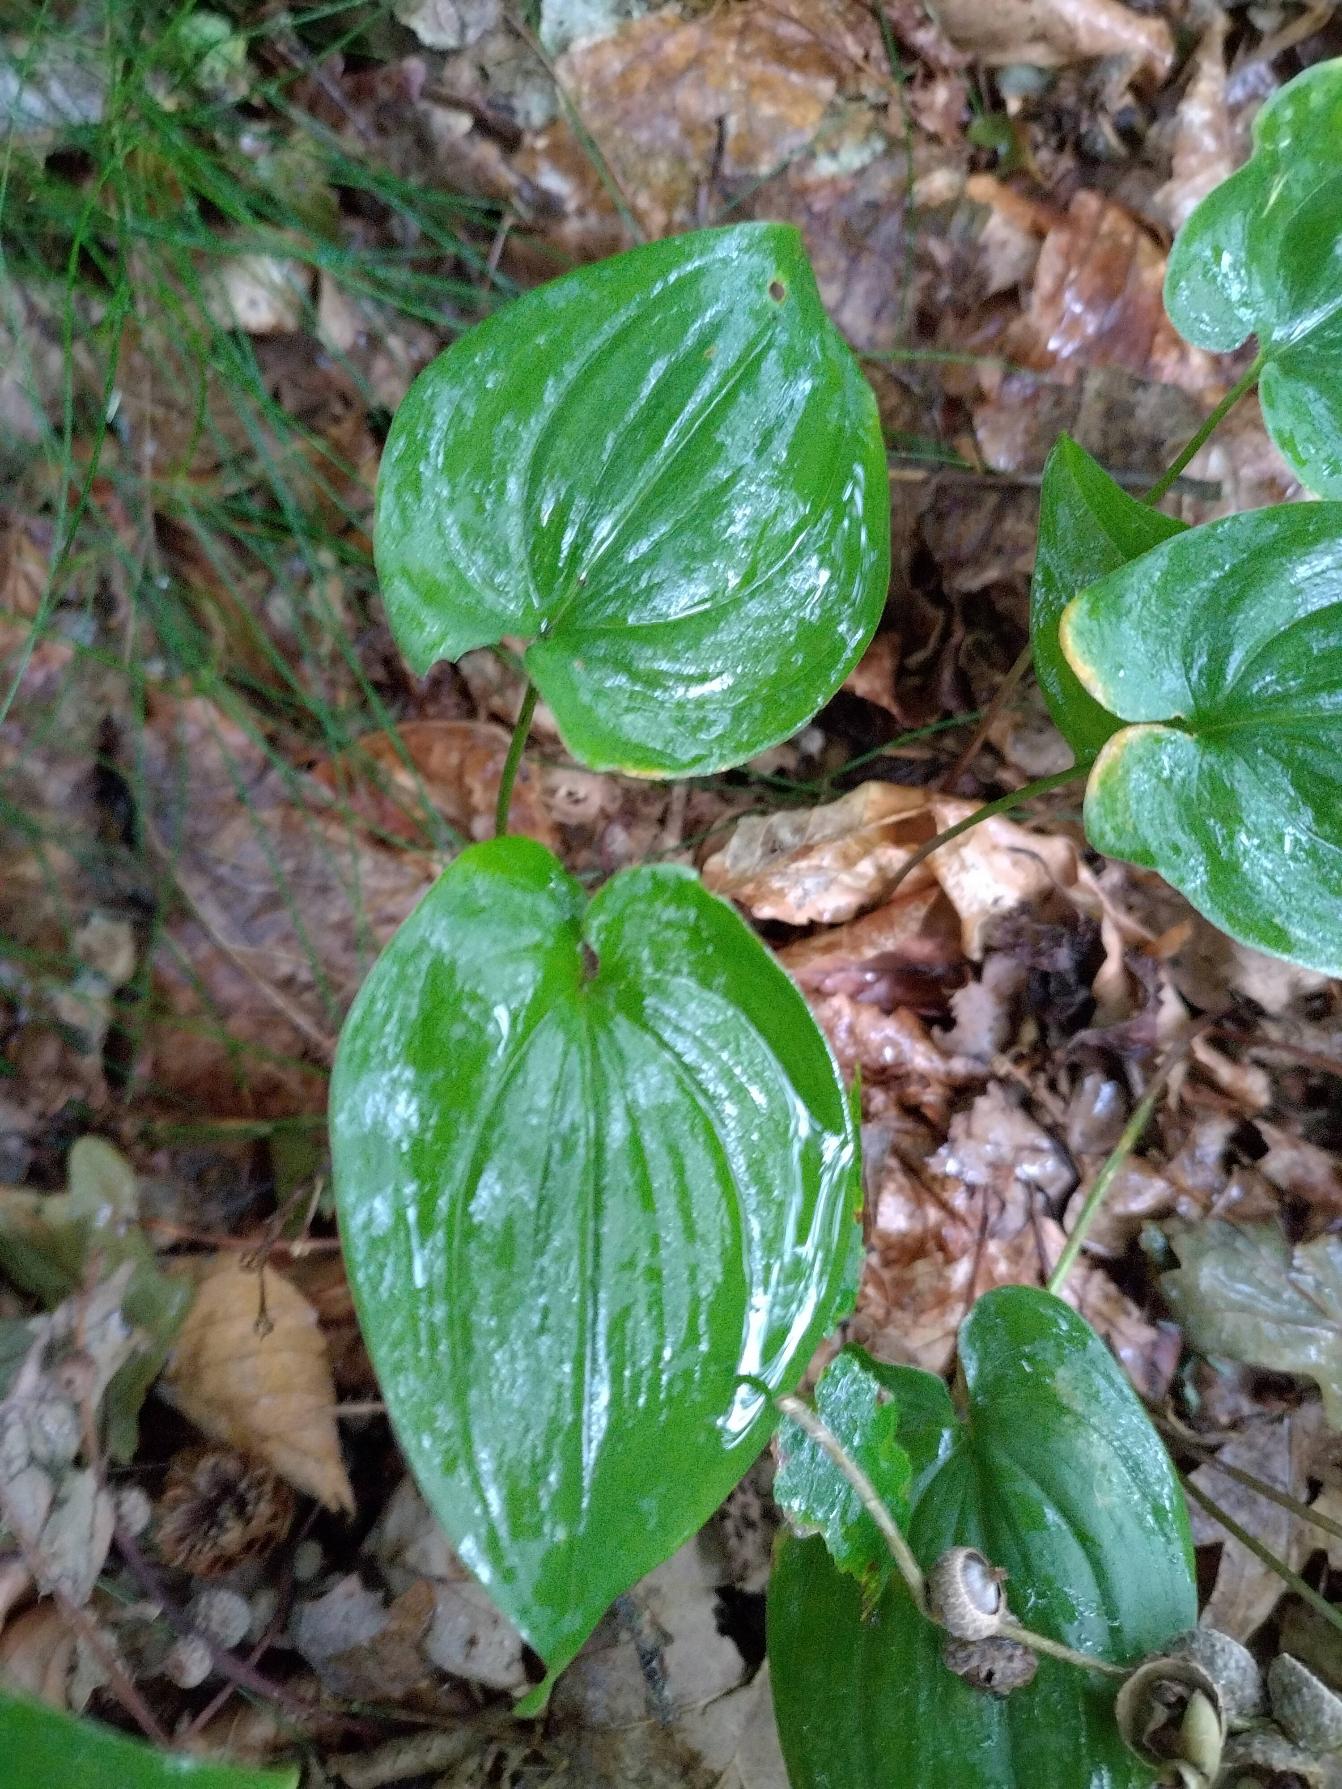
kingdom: Plantae
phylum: Tracheophyta
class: Liliopsida
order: Asparagales
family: Asparagaceae
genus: Maianthemum
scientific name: Maianthemum bifolium
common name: Majblomst
